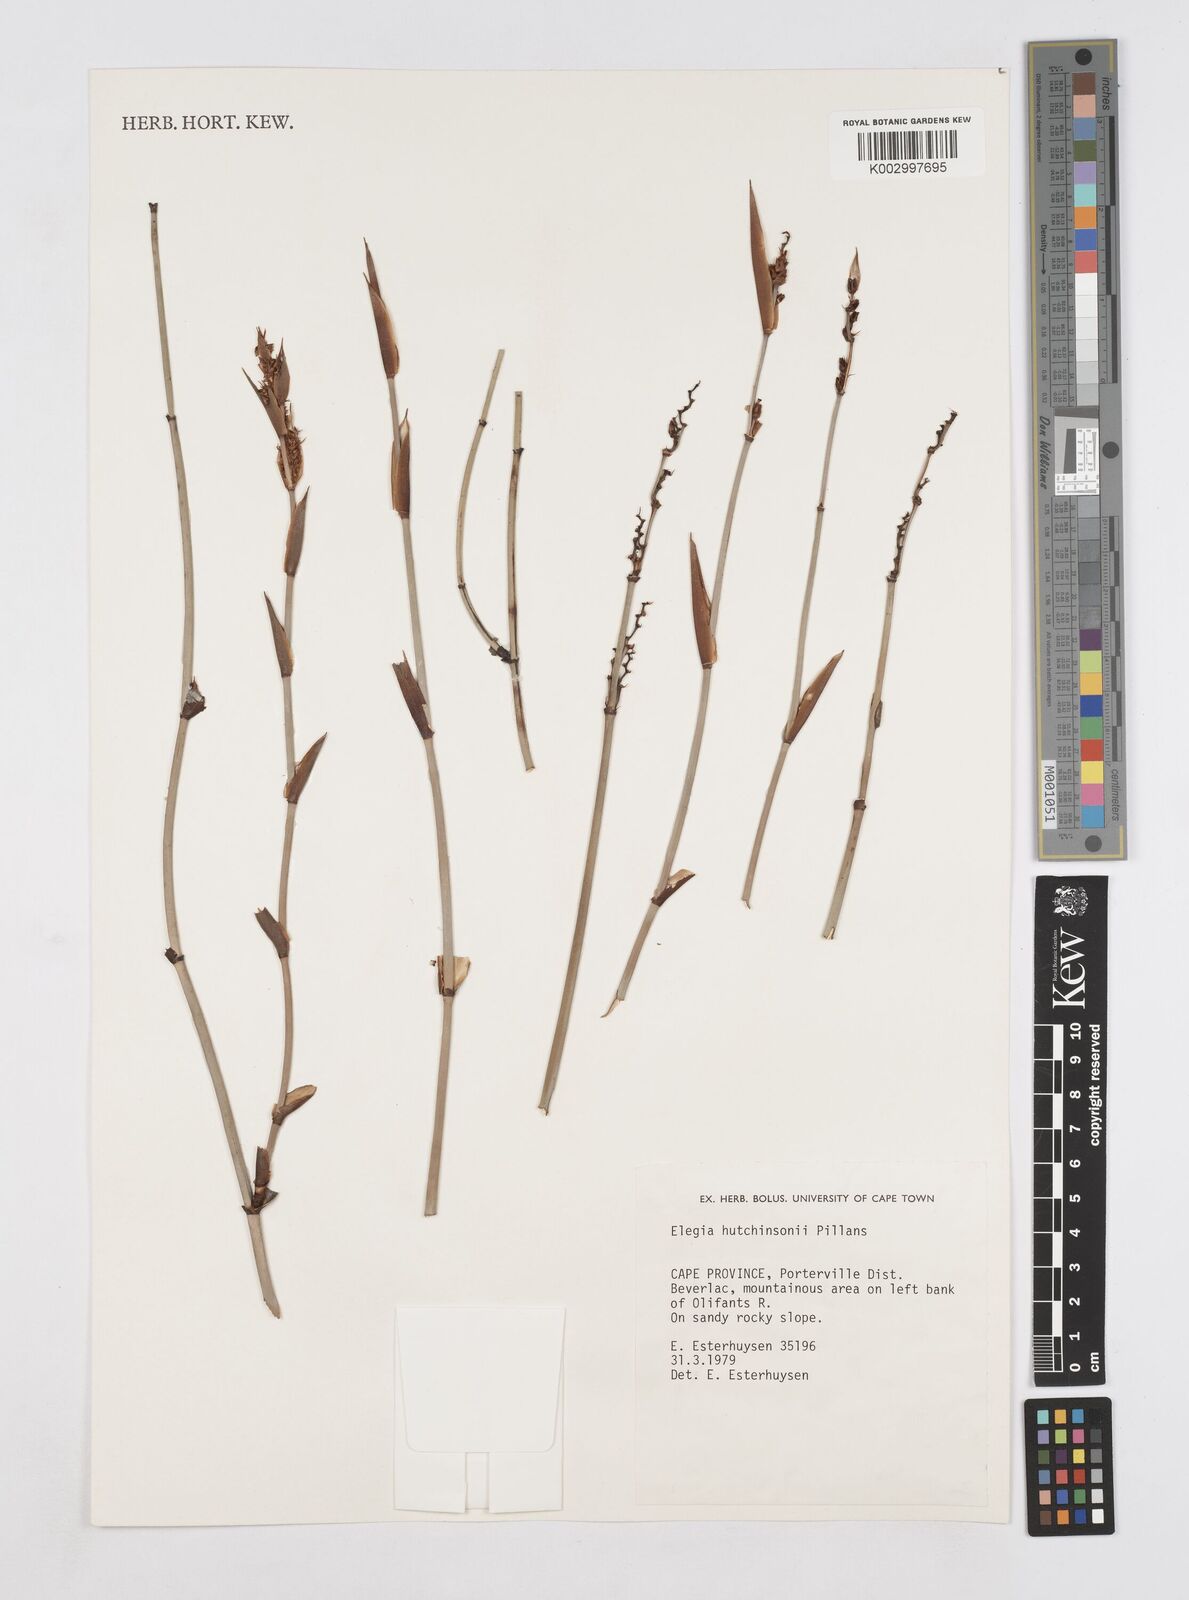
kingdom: Plantae
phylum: Tracheophyta
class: Liliopsida
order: Poales
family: Restionaceae
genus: Elegia
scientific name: Elegia hutchinsonii
